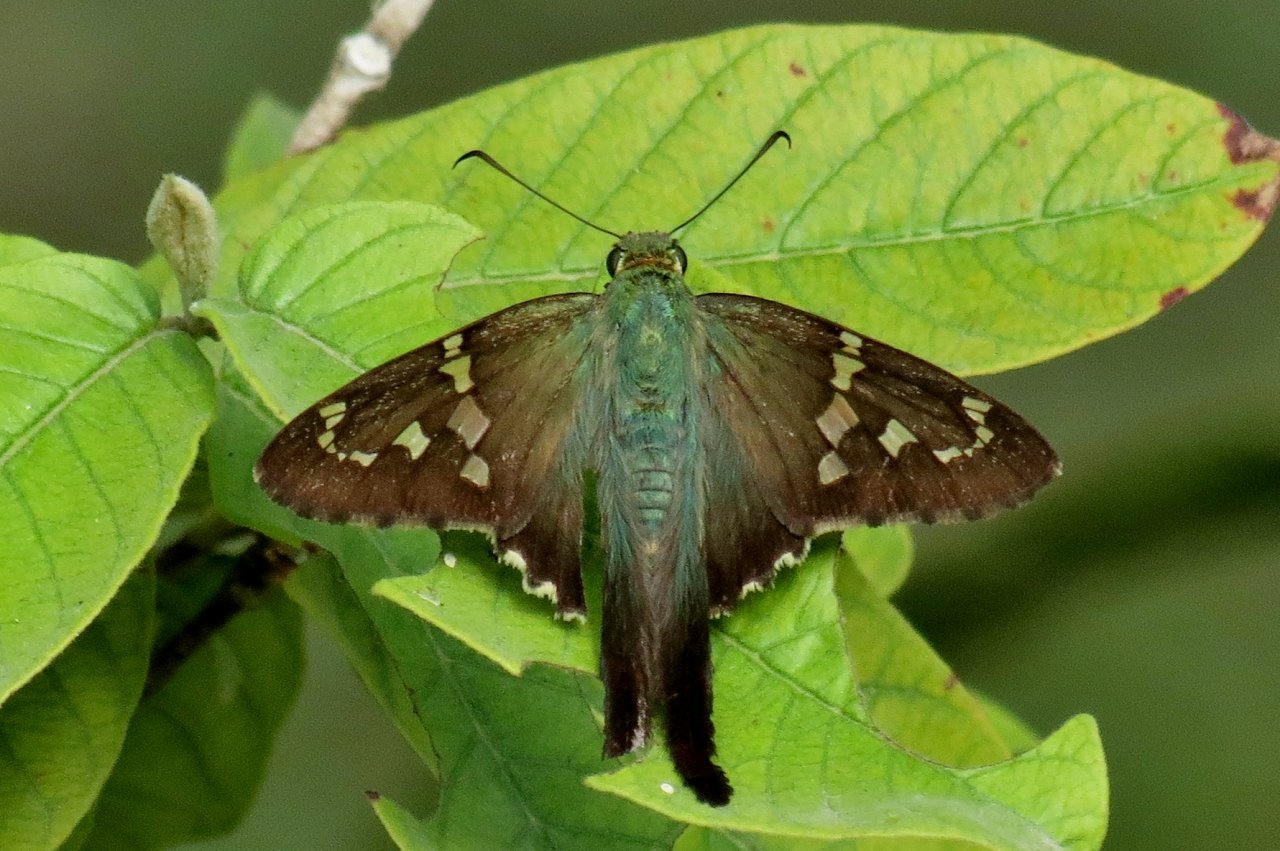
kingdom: Animalia
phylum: Arthropoda
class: Insecta
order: Lepidoptera
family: Hesperiidae
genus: Urbanus
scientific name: Urbanus proteus
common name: Long-tailed Skipper
